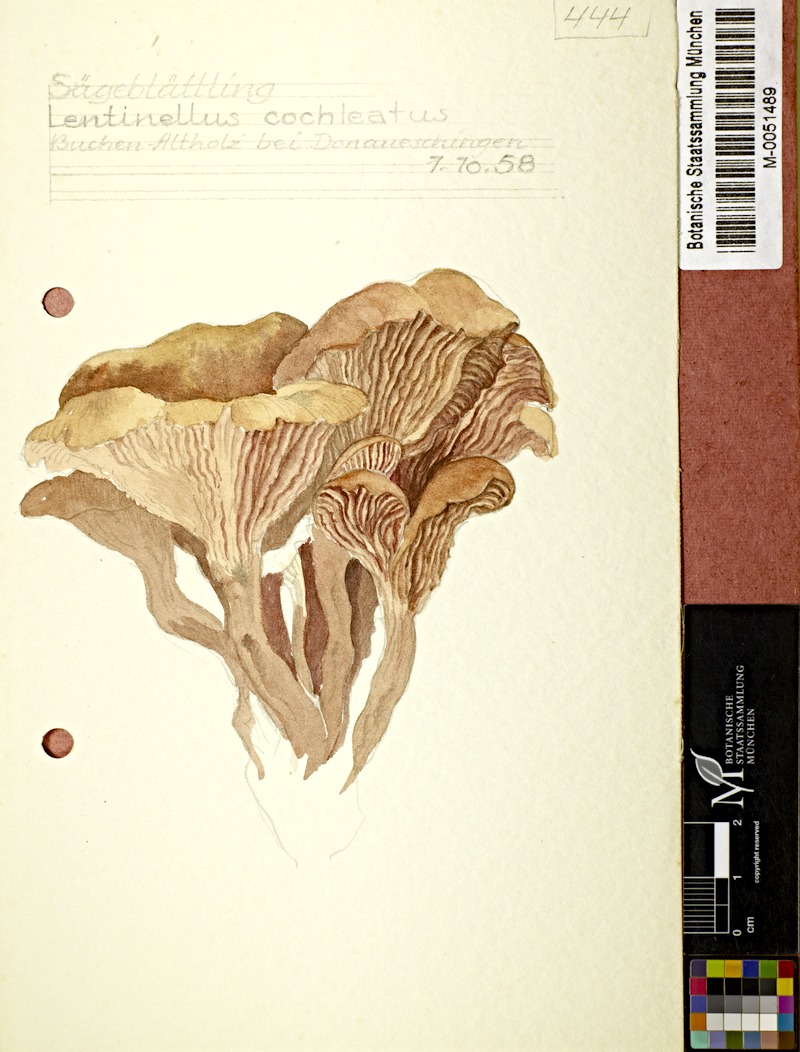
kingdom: Fungi
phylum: Basidiomycota
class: Agaricomycetes
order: Russulales
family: Auriscalpiaceae
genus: Lentinellus
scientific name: Lentinellus cochleatus
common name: Aniseed cockleshell
